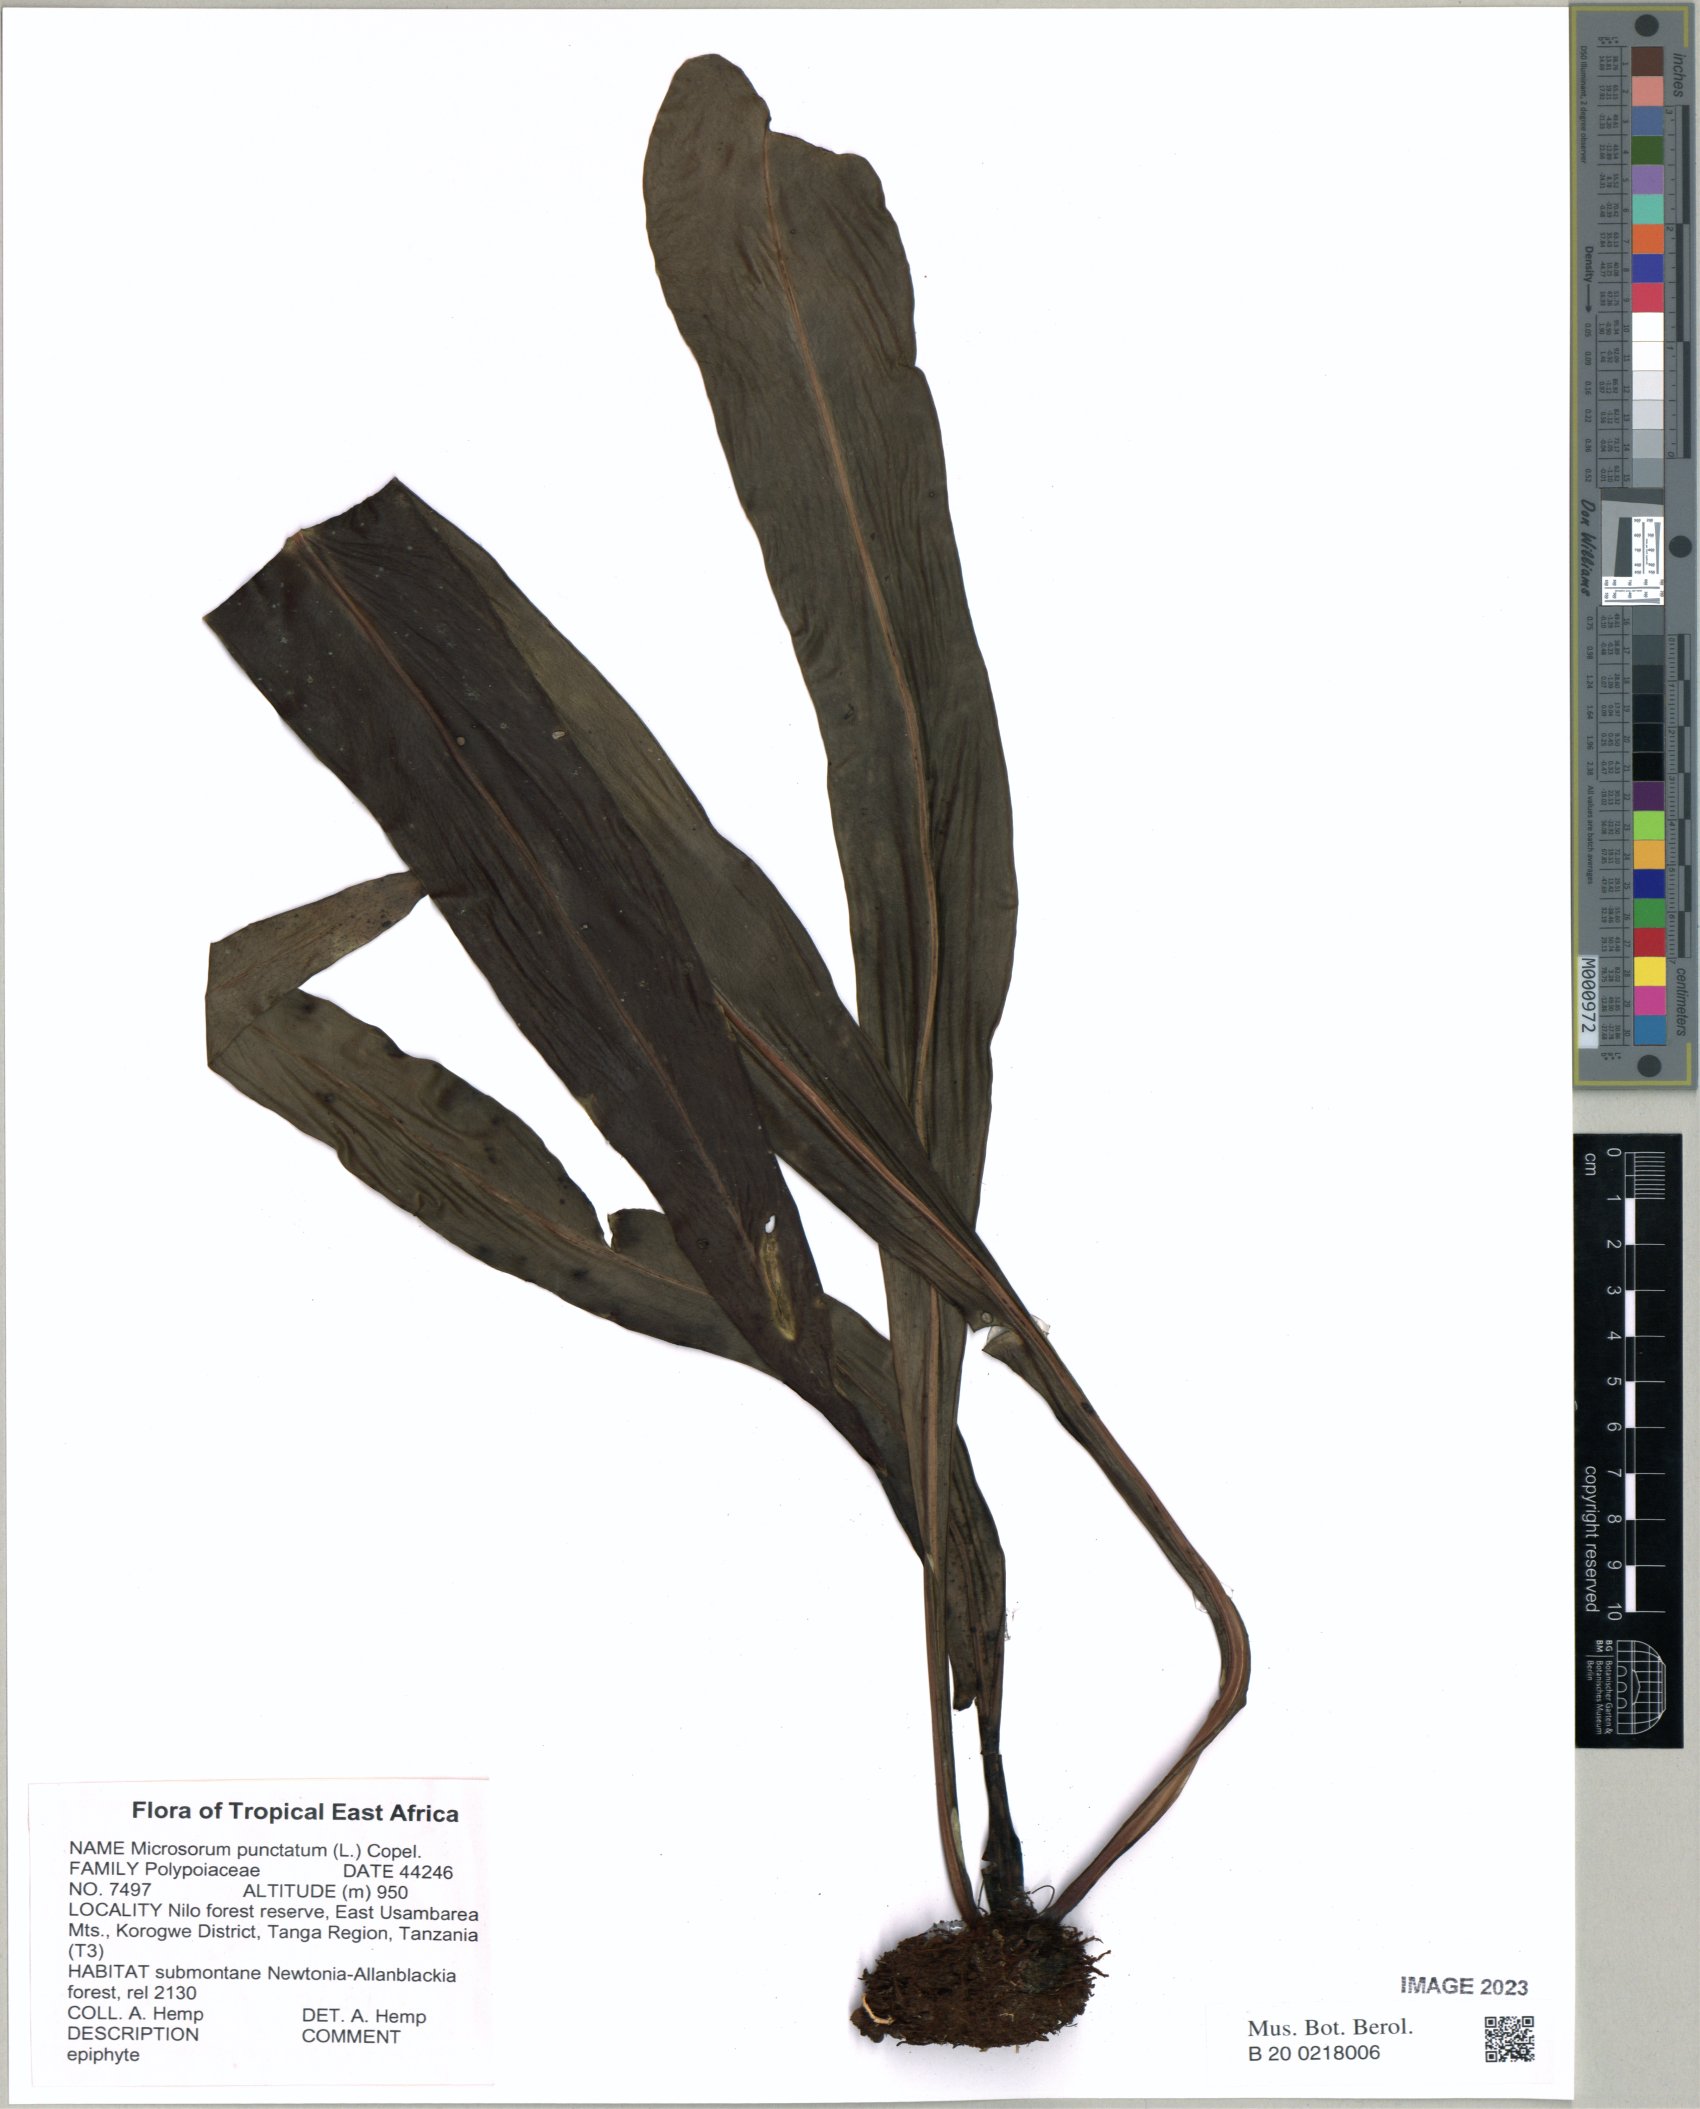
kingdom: Plantae
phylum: Tracheophyta
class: Polypodiopsida
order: Polypodiales
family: Polypodiaceae
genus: Microsorum
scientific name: Microsorum punctatum
